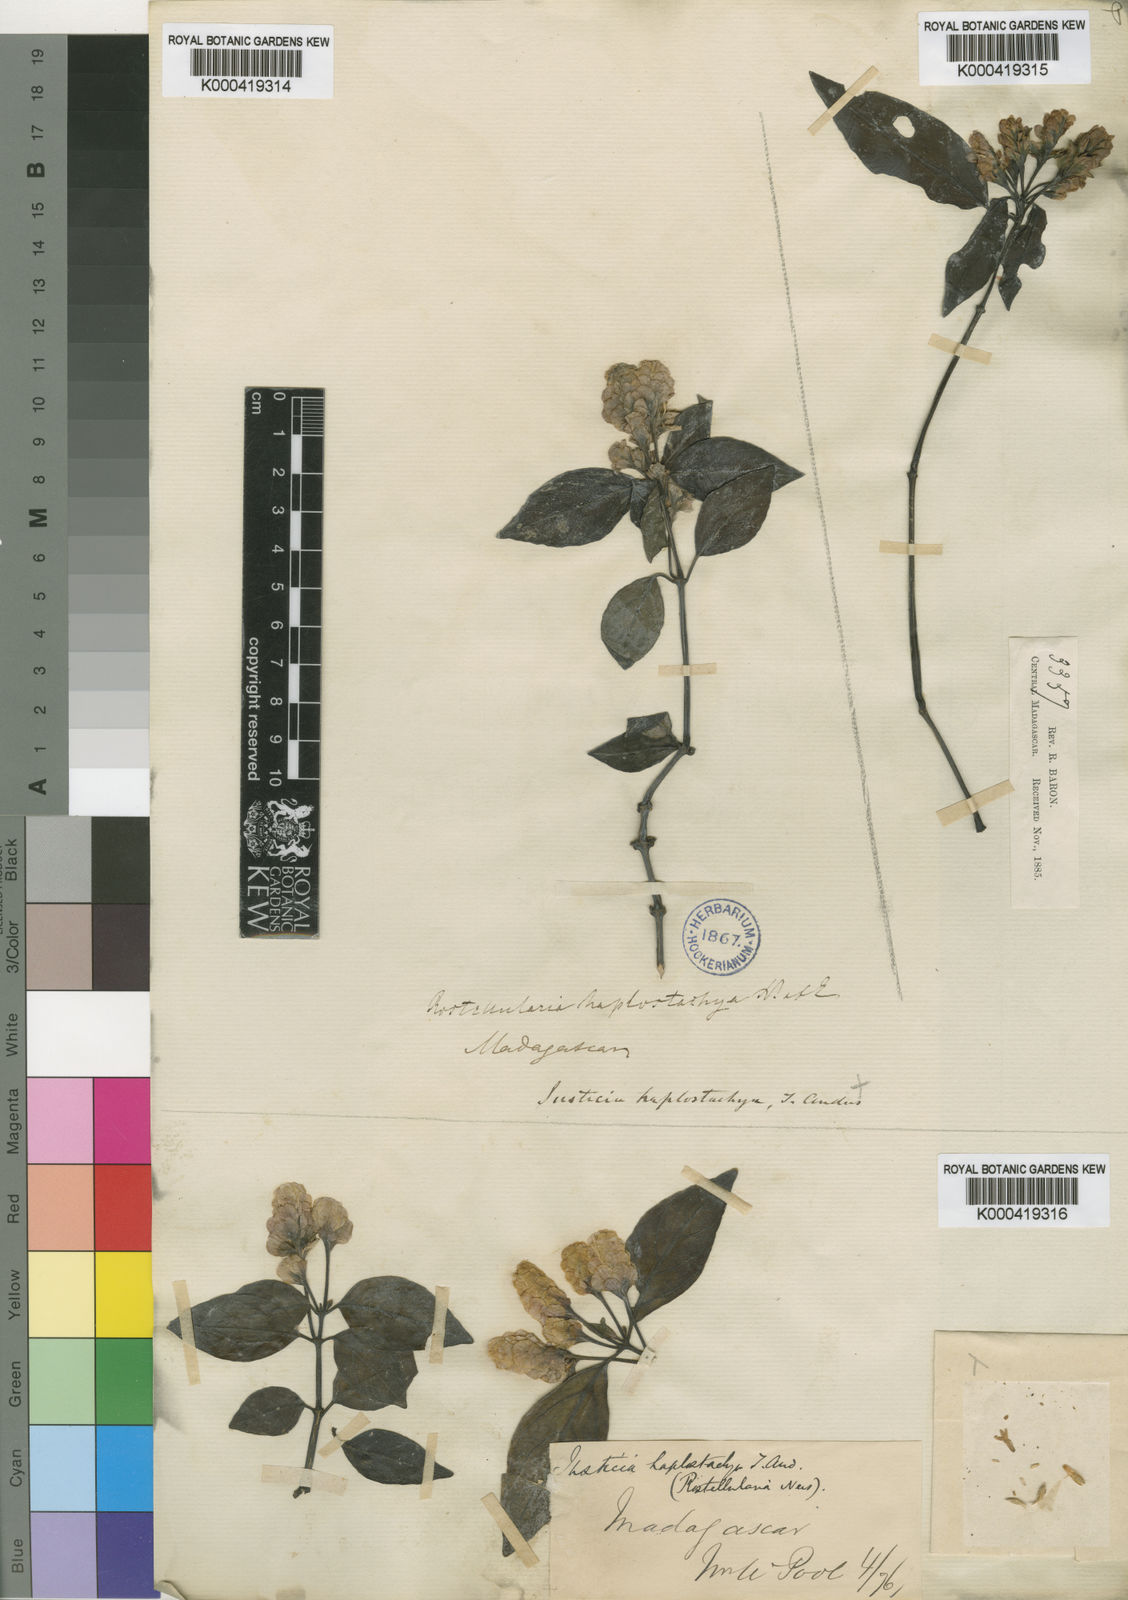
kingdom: Plantae
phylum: Tracheophyta
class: Magnoliopsida
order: Lamiales
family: Acanthaceae
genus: Anisostachya
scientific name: Anisostachya haplostachya
